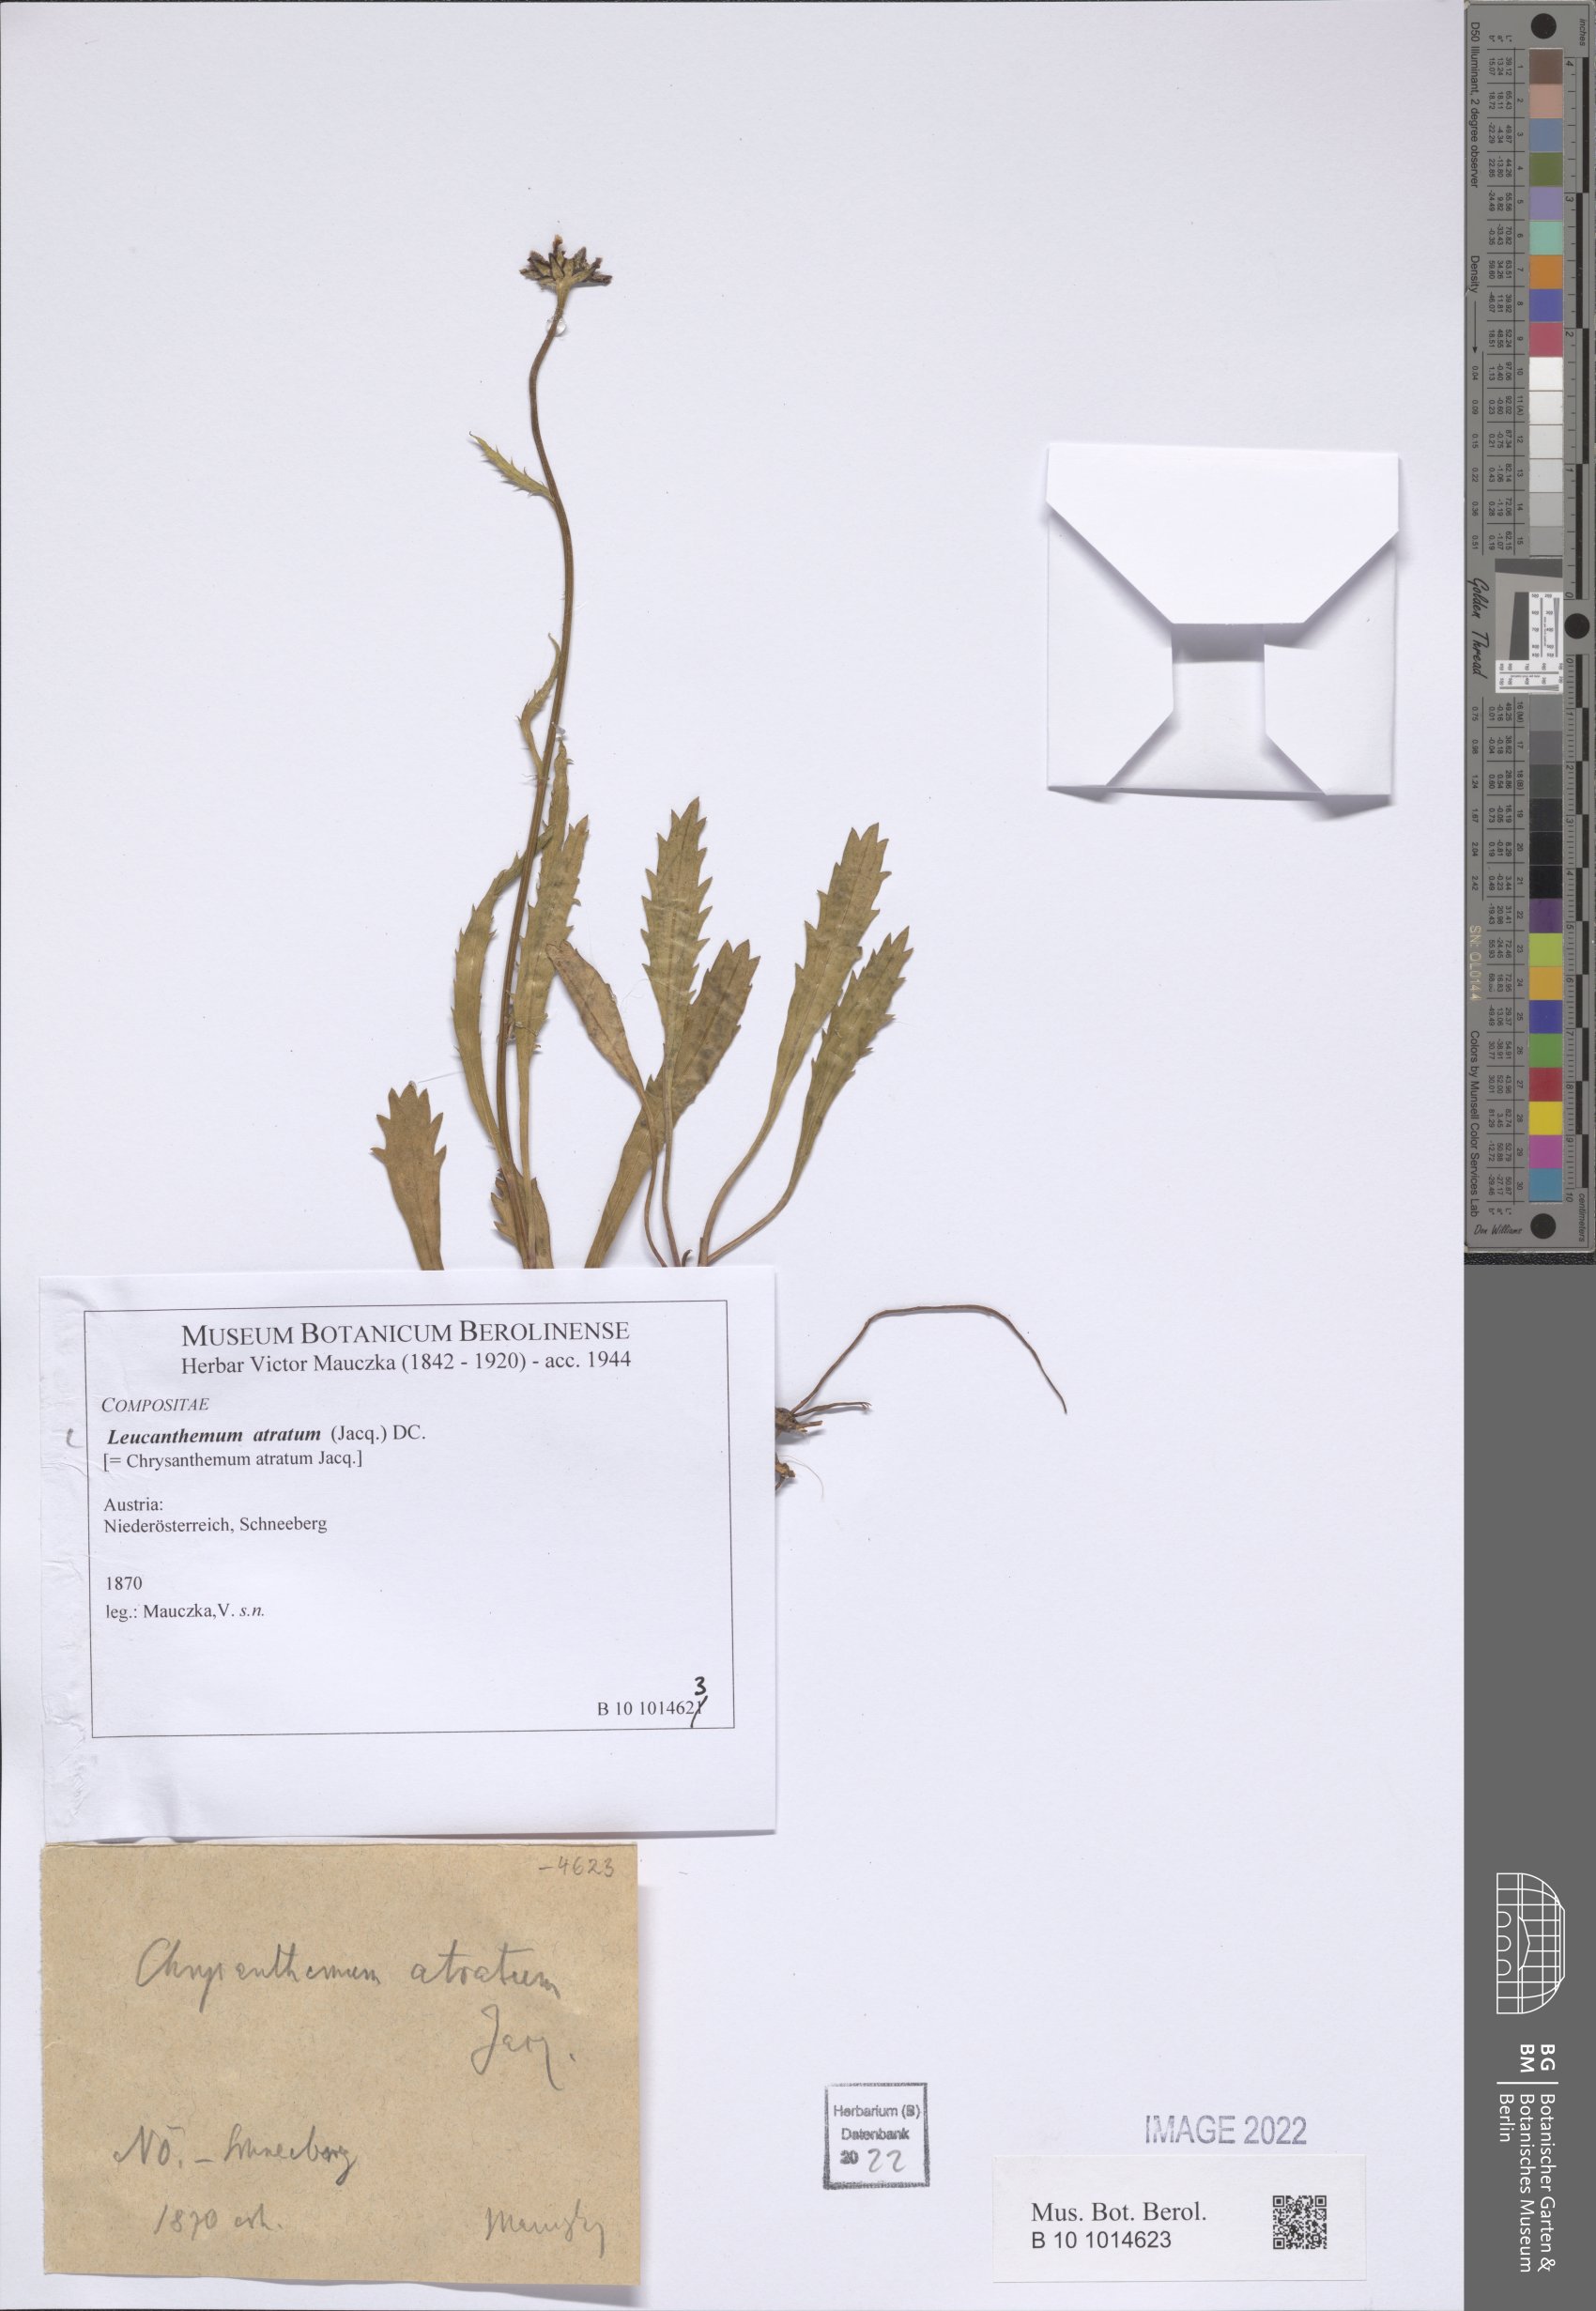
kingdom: Plantae
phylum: Tracheophyta
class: Magnoliopsida
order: Asterales
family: Asteraceae
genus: Leucanthemum
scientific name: Leucanthemum atratum
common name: Saw-leaved moon-daisy
